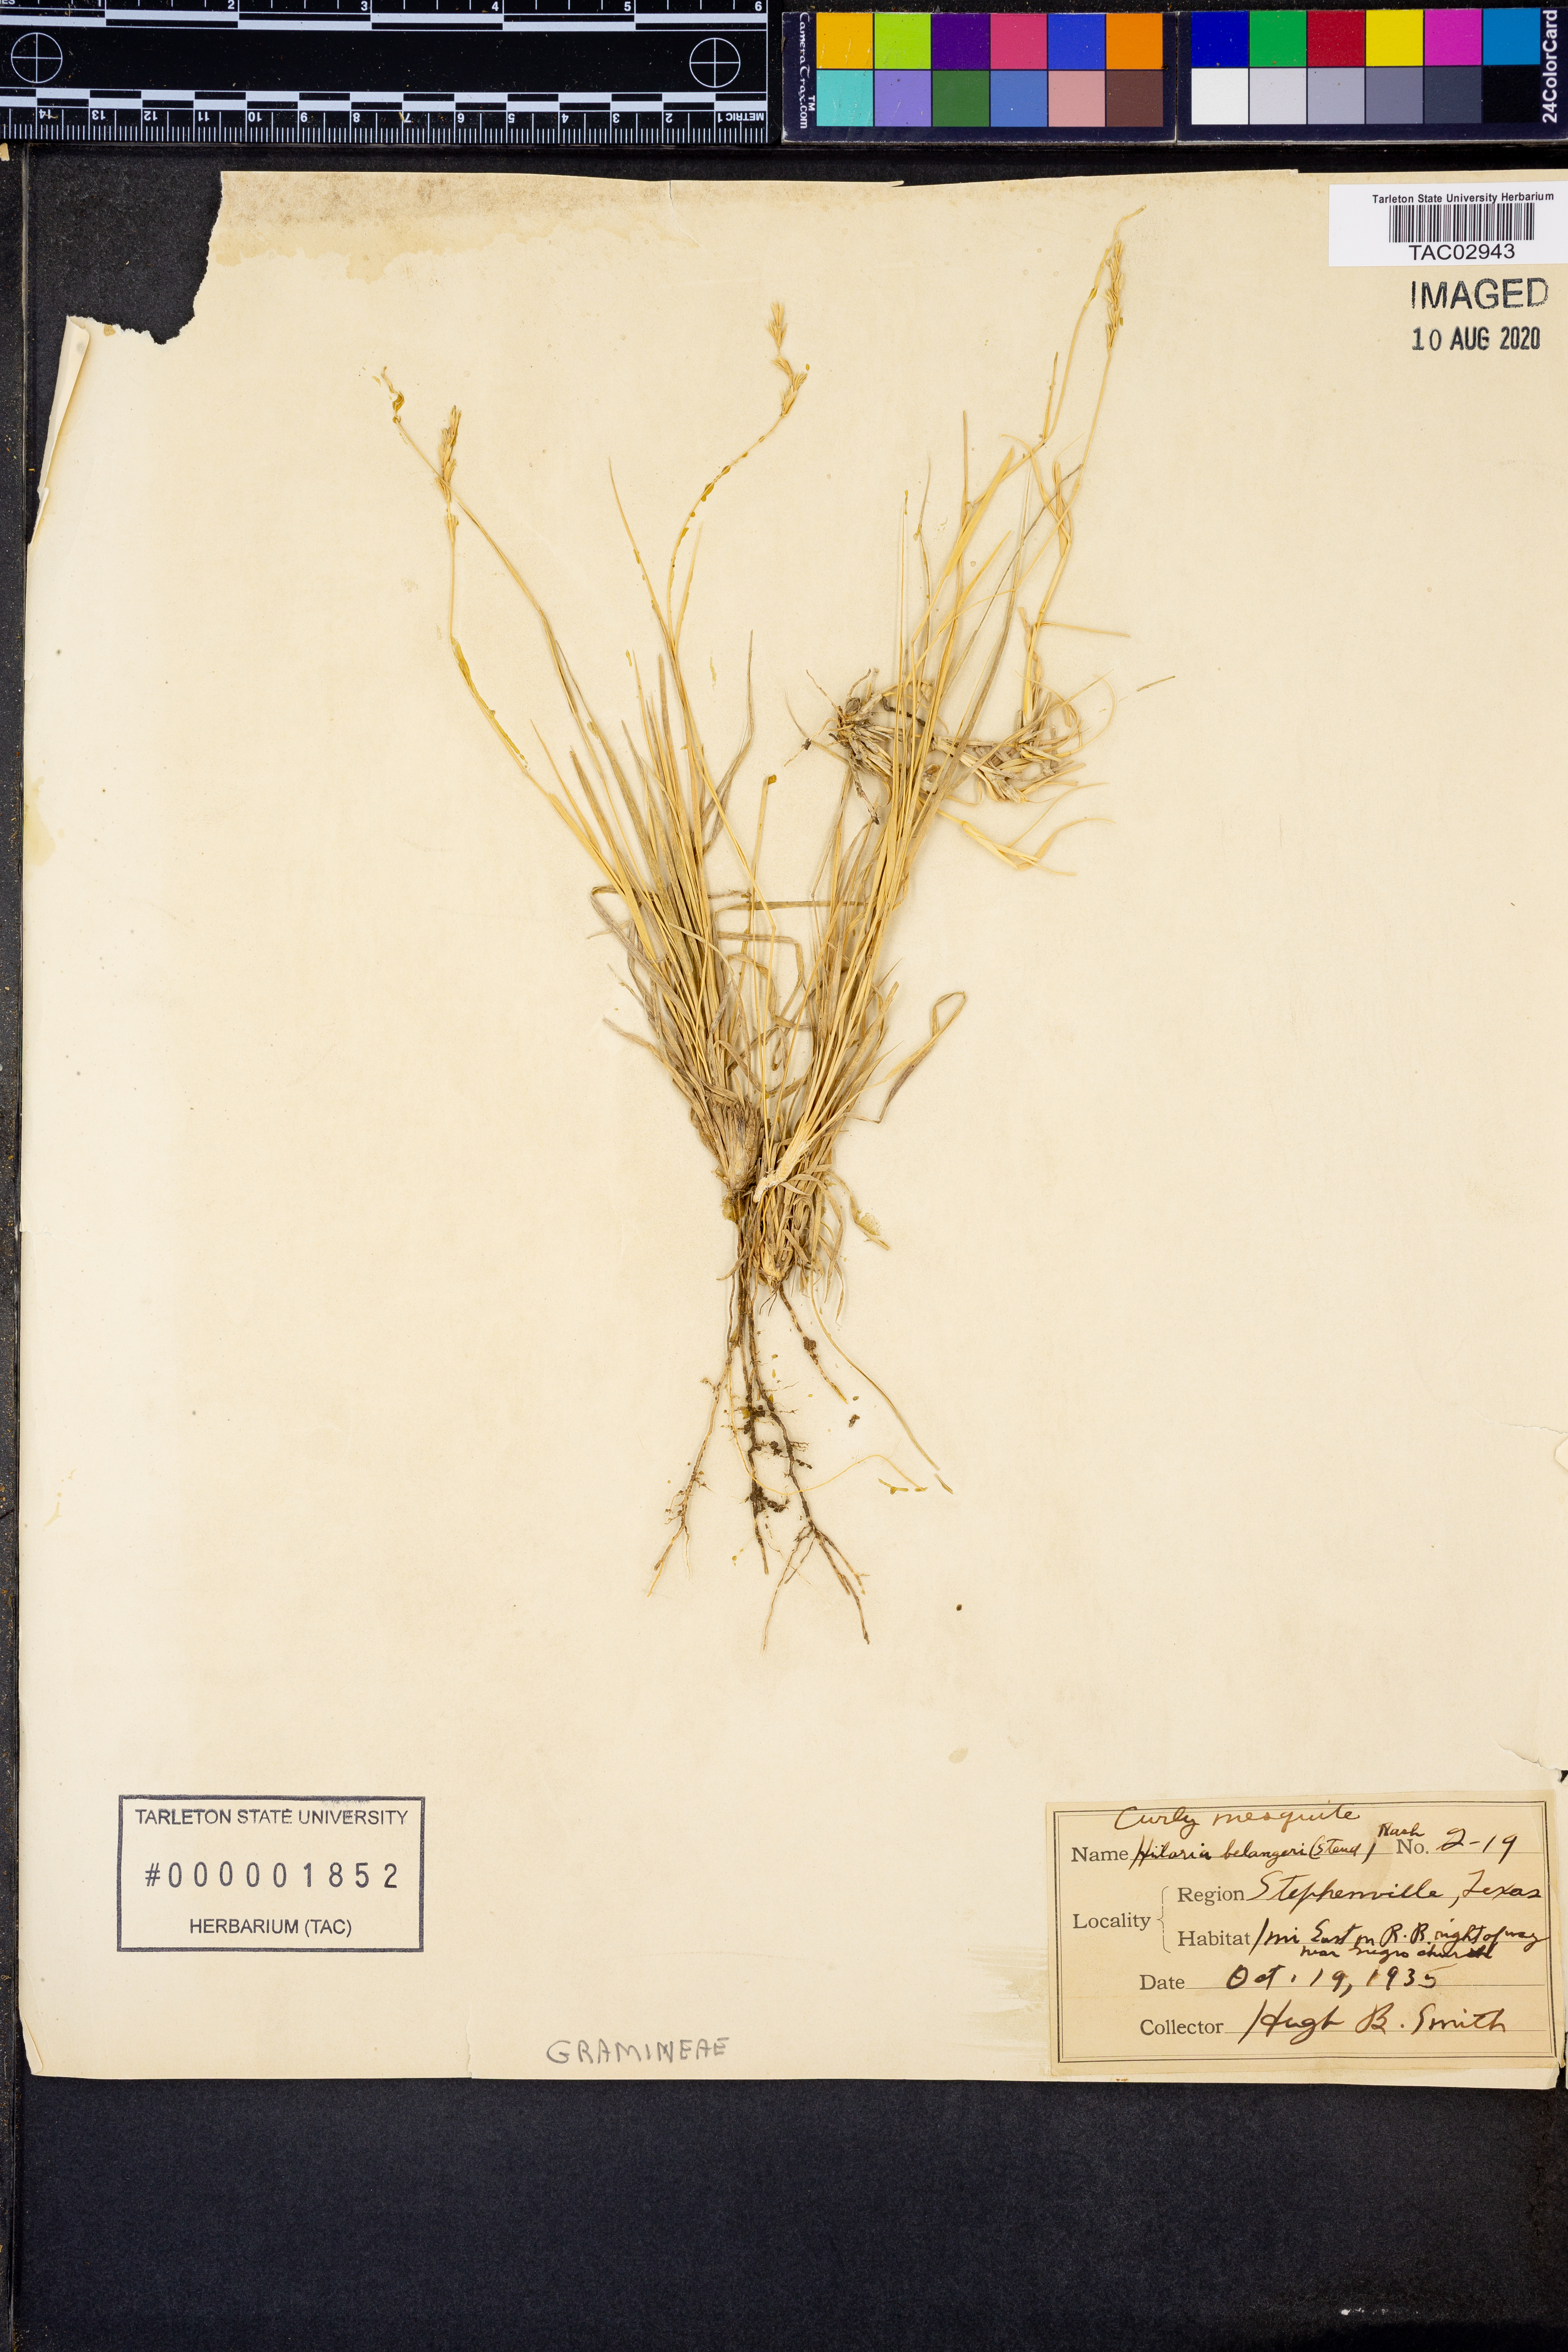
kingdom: Plantae
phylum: Tracheophyta
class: Liliopsida
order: Poales
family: Poaceae
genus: Hilaria
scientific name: Hilaria belangeri
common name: Curly-mesquite
